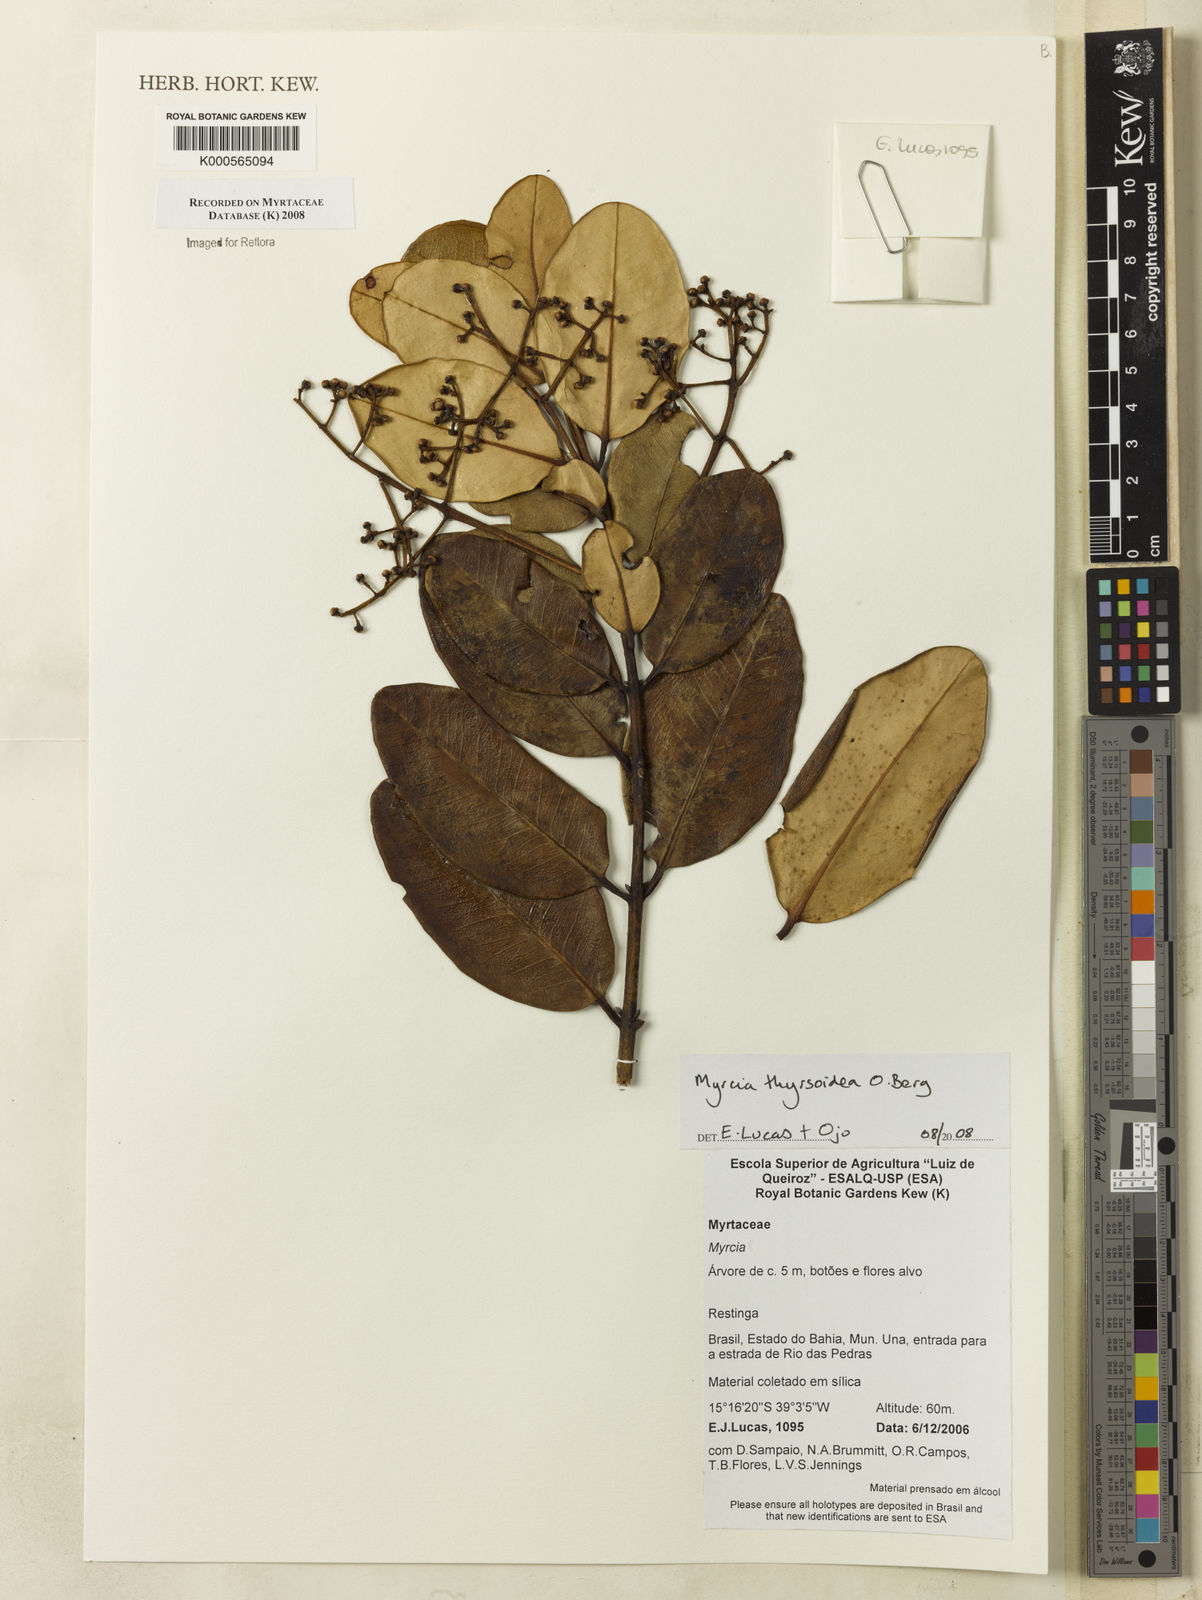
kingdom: Plantae
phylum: Tracheophyta
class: Magnoliopsida
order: Myrtales
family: Myrtaceae
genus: Myrcia
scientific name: Myrcia thyrsoidea
